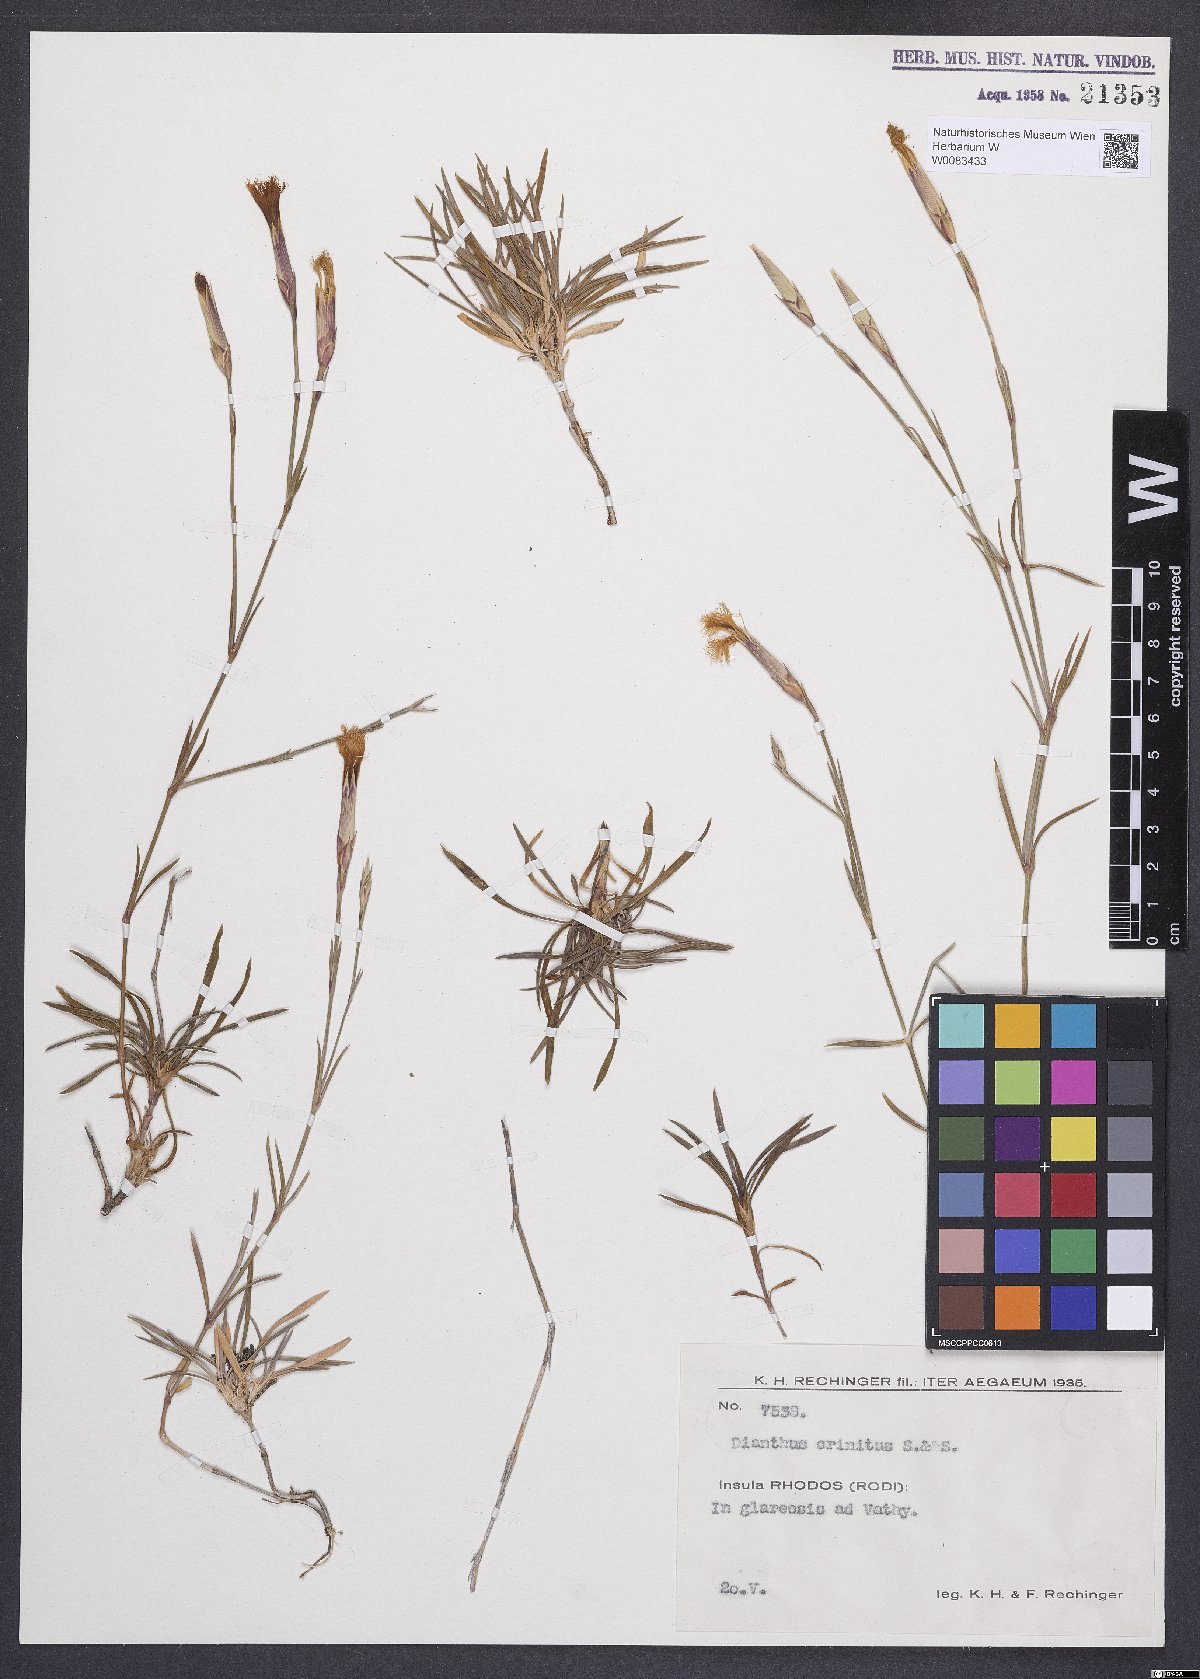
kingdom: Plantae
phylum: Tracheophyta
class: Magnoliopsida
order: Caryophyllales
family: Caryophyllaceae
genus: Dianthus
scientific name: Dianthus crinitus
